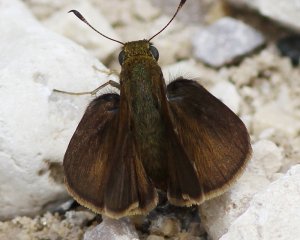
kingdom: Animalia
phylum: Arthropoda
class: Insecta
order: Lepidoptera
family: Hesperiidae
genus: Euphyes
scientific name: Euphyes vestris
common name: Dun Skipper
